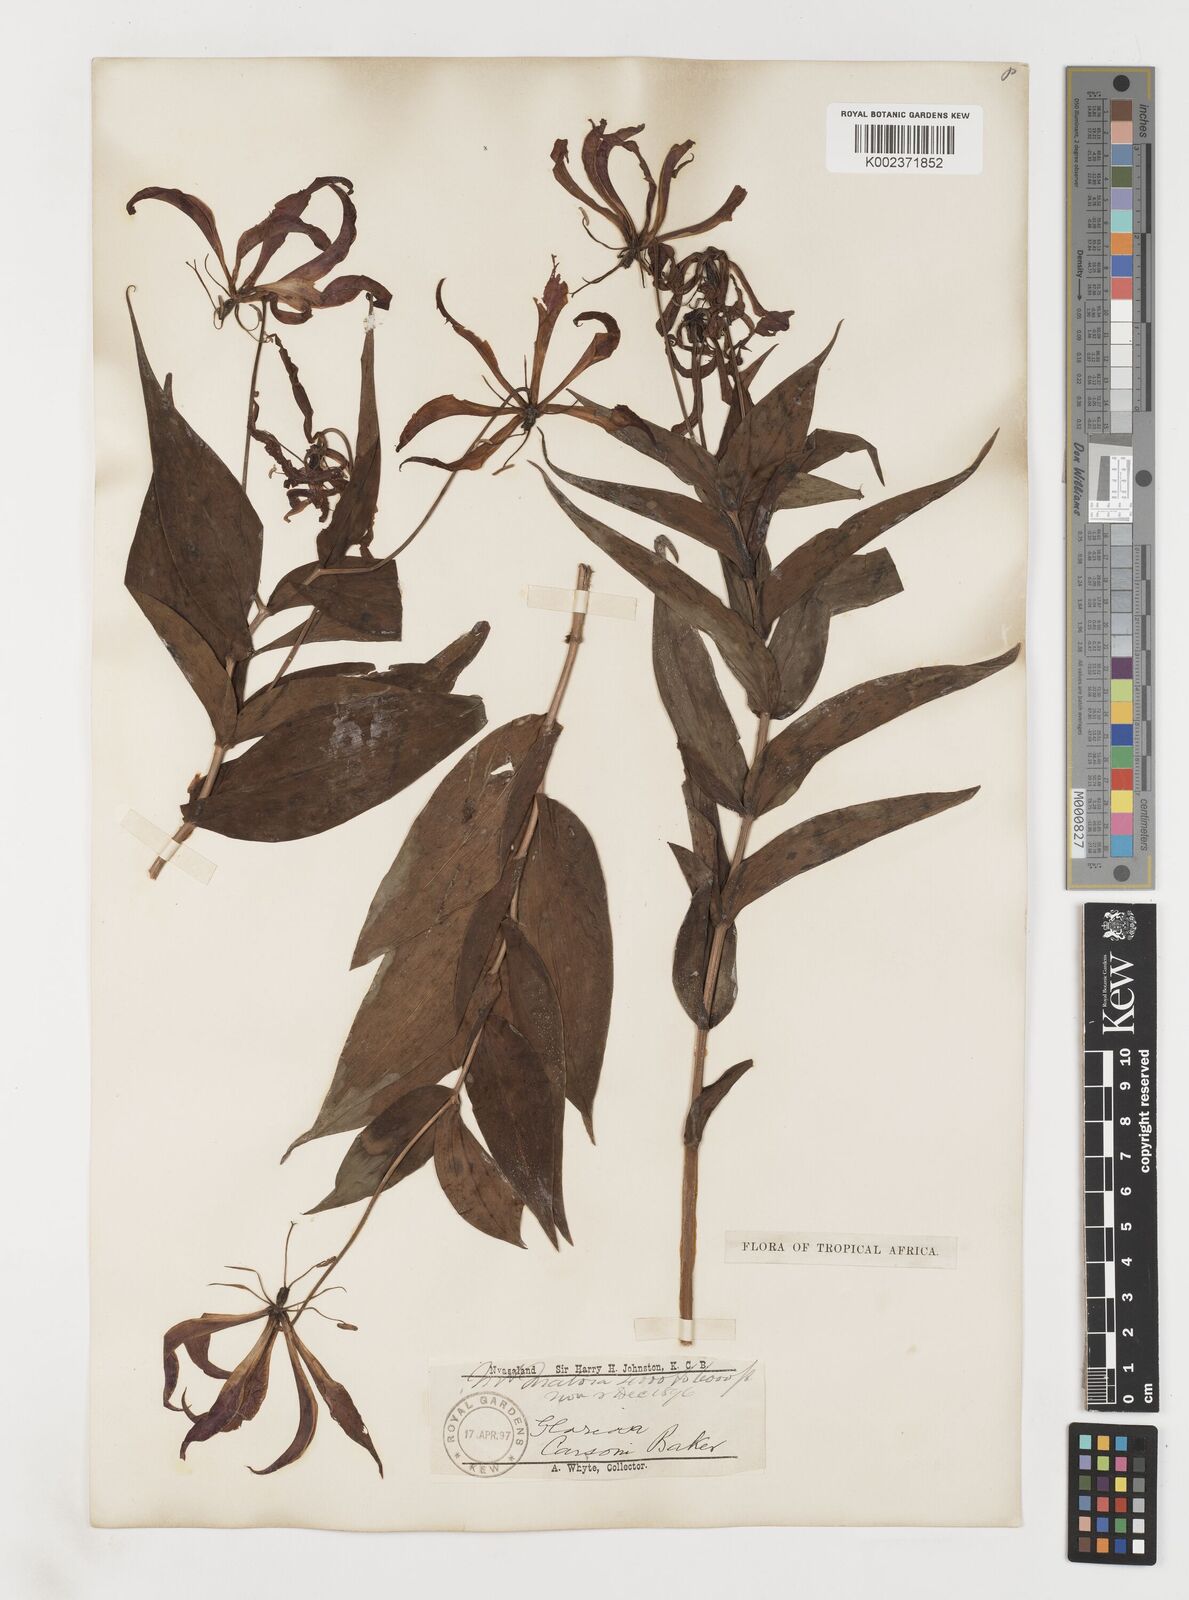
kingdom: Plantae
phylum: Tracheophyta
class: Liliopsida
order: Liliales
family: Colchicaceae
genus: Gloriosa
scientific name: Gloriosa simplex
